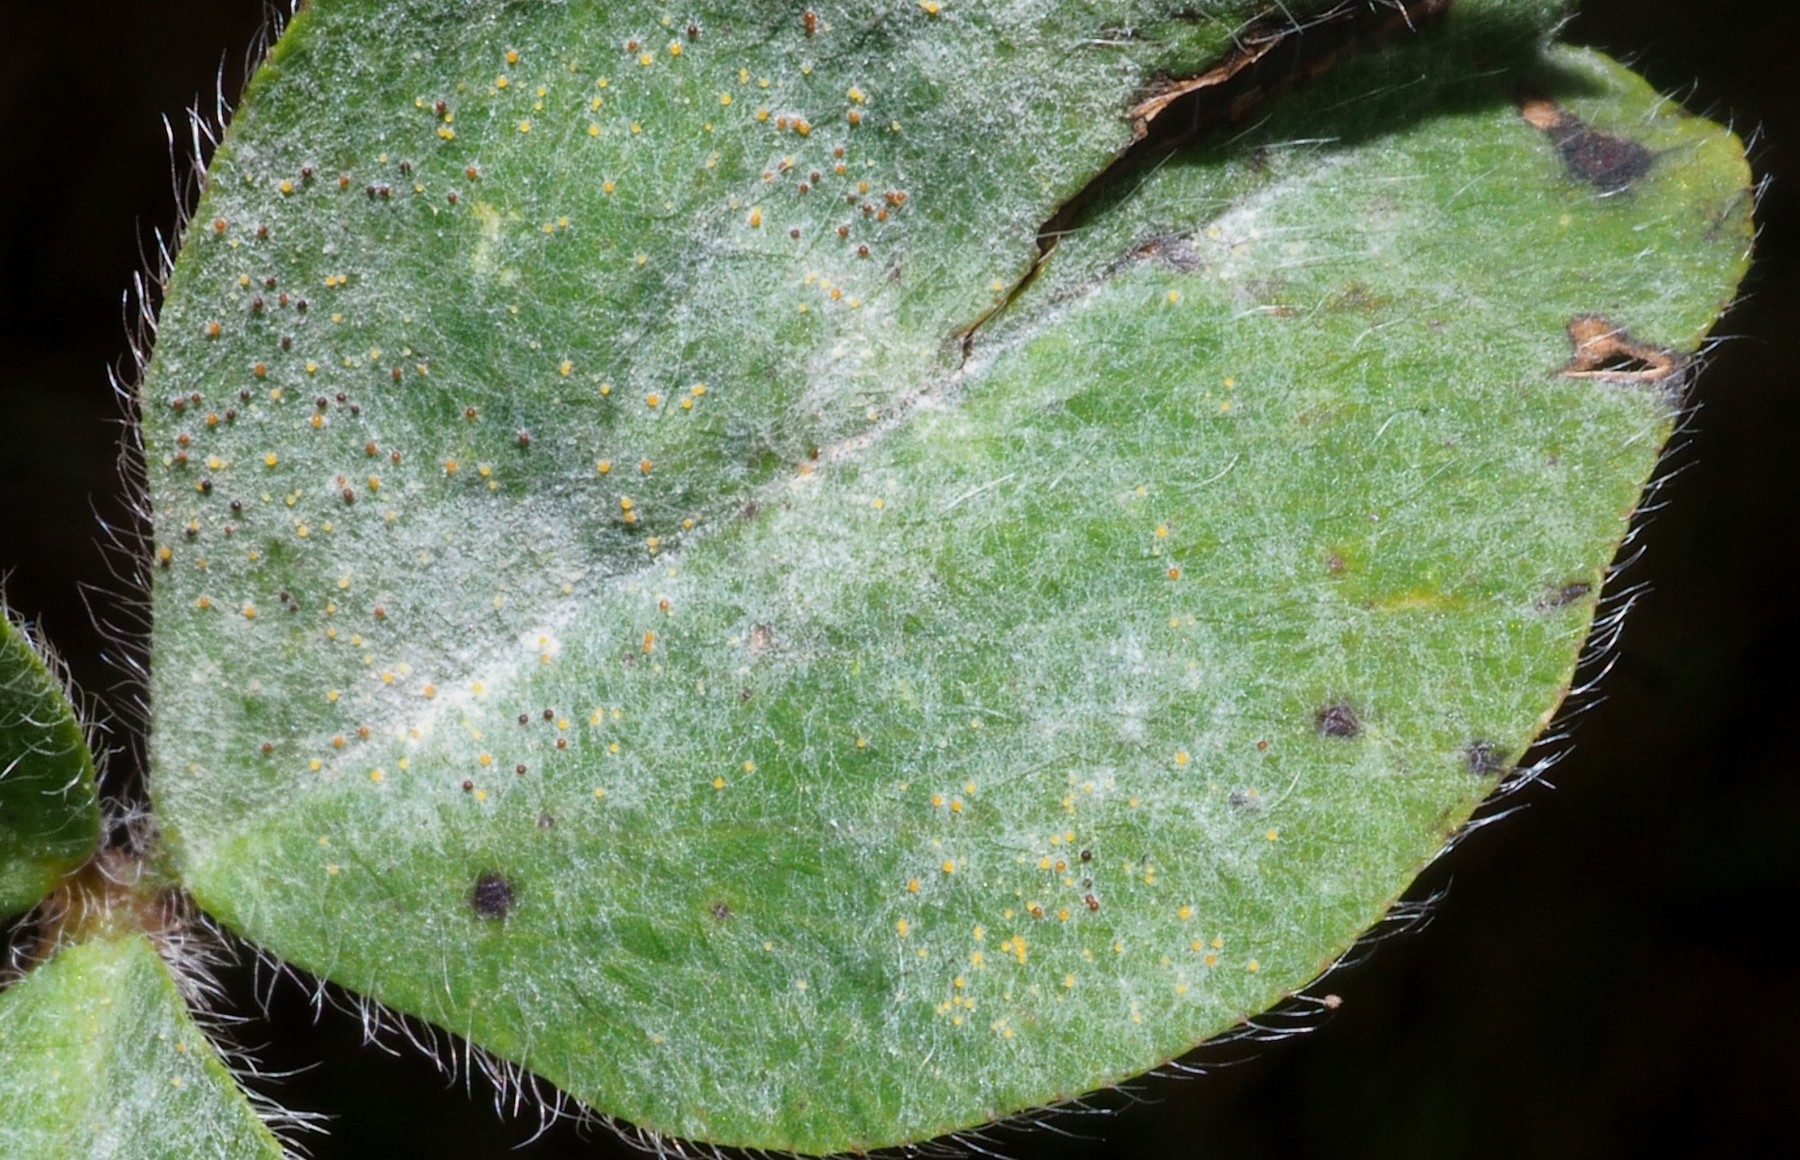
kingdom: Fungi
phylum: Ascomycota
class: Leotiomycetes
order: Helotiales
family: Erysiphaceae
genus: Erysiphe
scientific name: Erysiphe trifoliorum
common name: kløver-meldug
